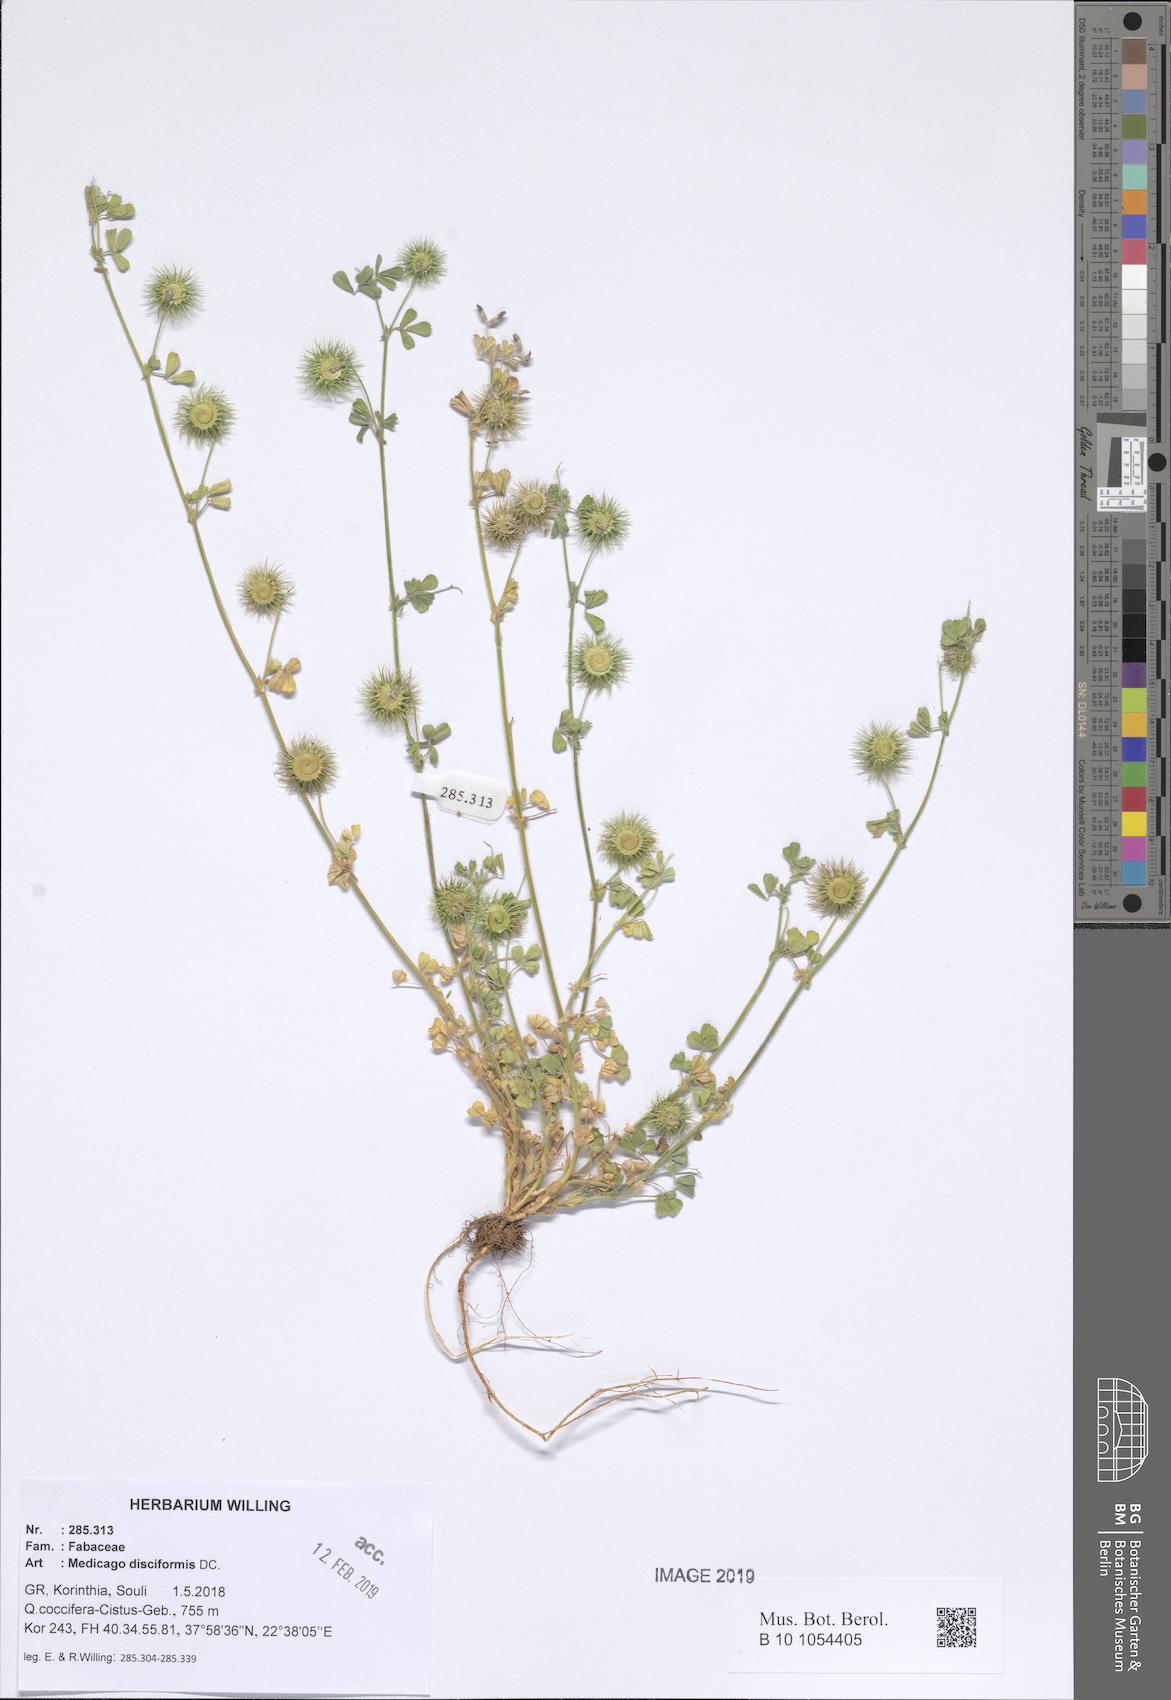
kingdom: Plantae
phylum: Tracheophyta
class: Magnoliopsida
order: Fabales
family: Fabaceae
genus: Medicago
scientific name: Medicago disciformis
